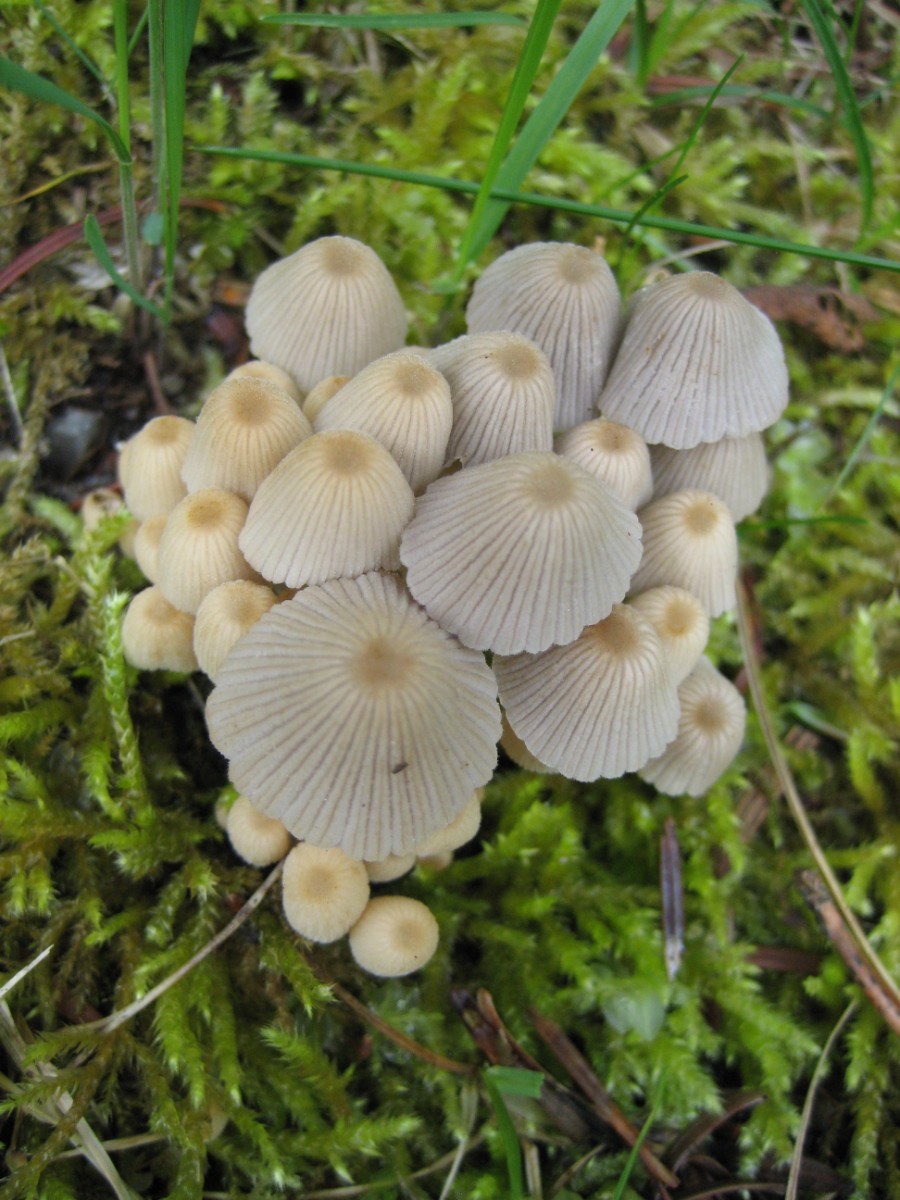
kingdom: Fungi
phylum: Basidiomycota
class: Agaricomycetes
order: Agaricales
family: Psathyrellaceae
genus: Coprinellus
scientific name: Coprinellus disseminatus
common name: bredsået blækhat
